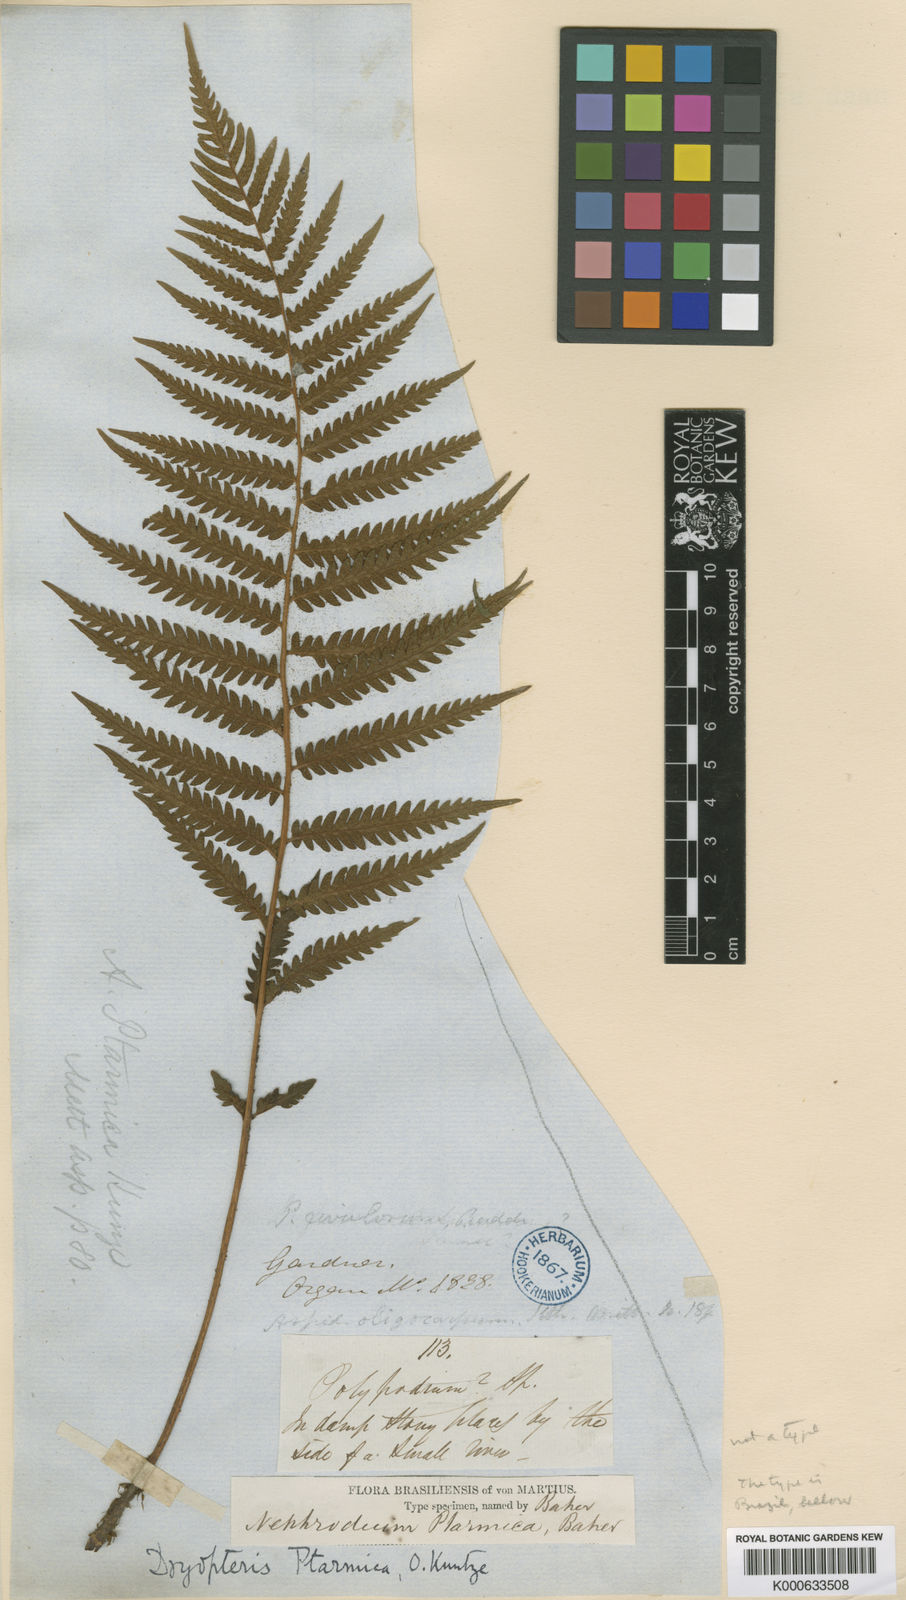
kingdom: Plantae
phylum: Tracheophyta
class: Polypodiopsida
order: Polypodiales
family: Thelypteridaceae
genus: Amauropelta
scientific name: Amauropelta ptarmica
